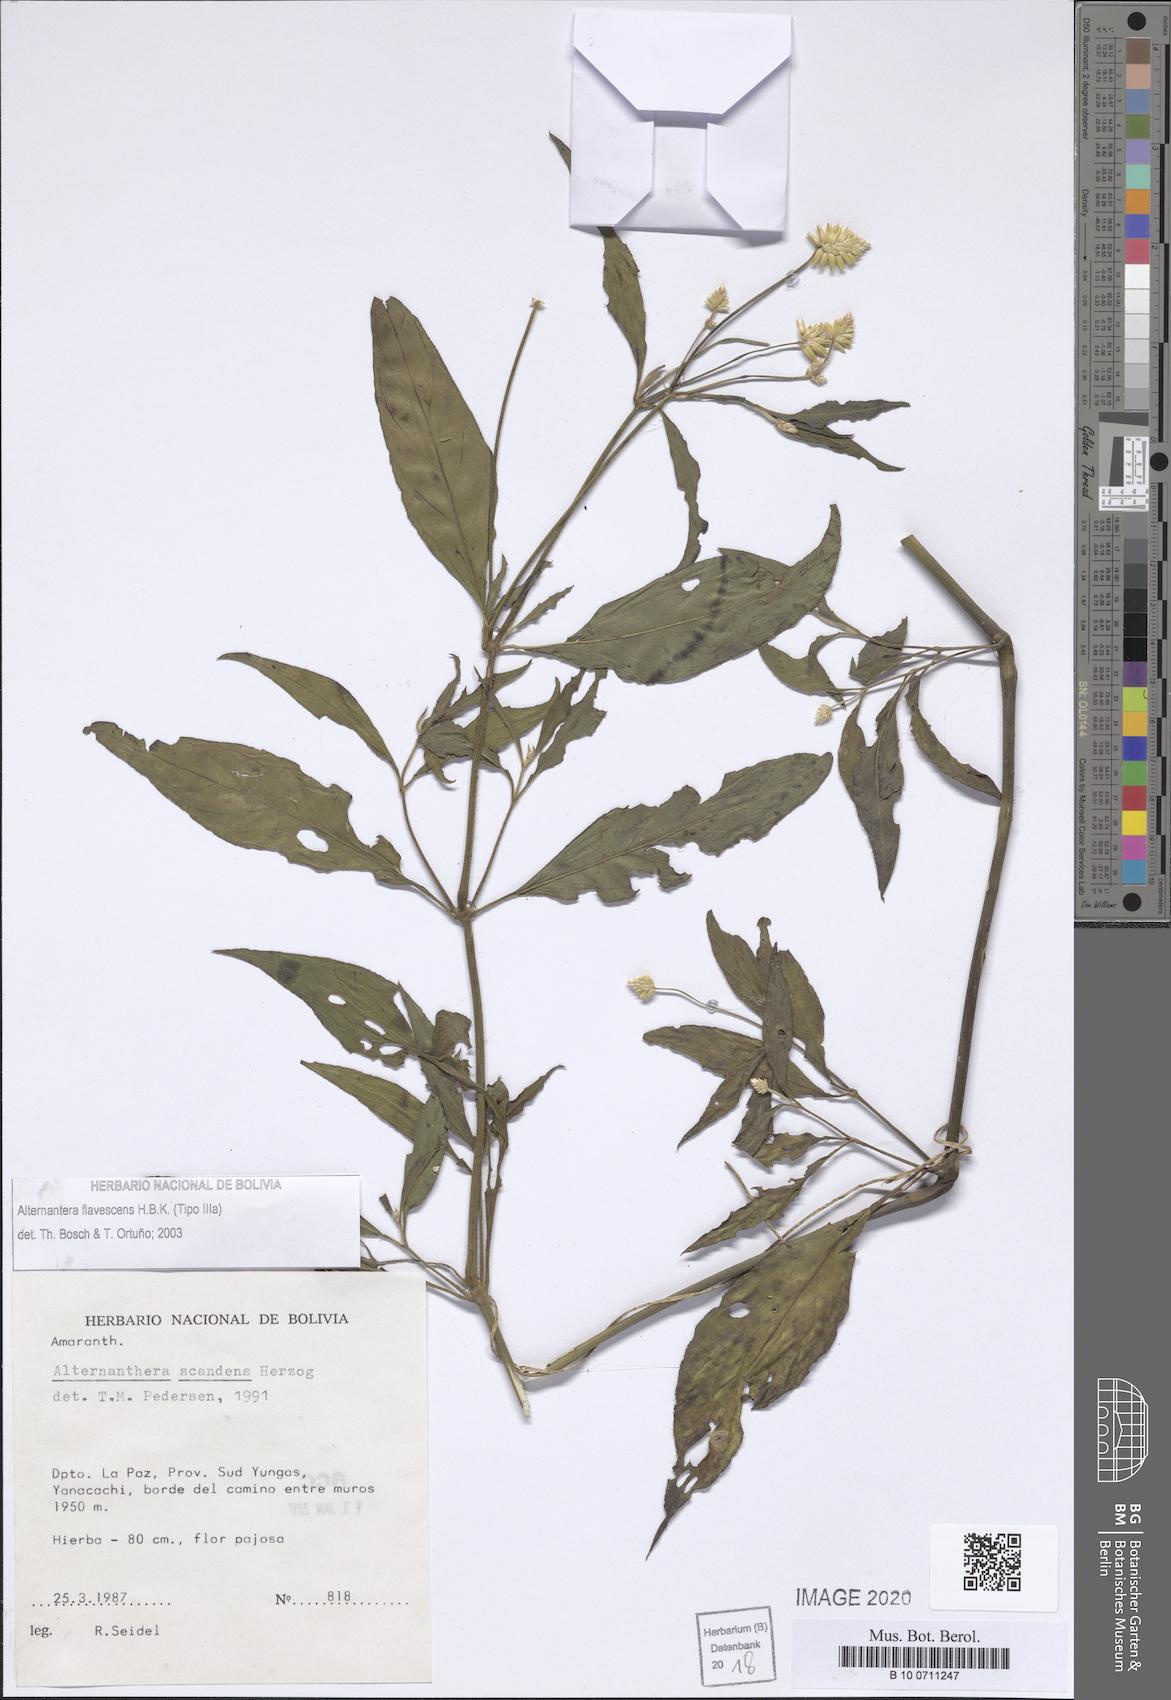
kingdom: Plantae
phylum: Tracheophyta
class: Magnoliopsida
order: Caryophyllales
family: Amaranthaceae
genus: Alternanthera
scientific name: Alternanthera flavescens
